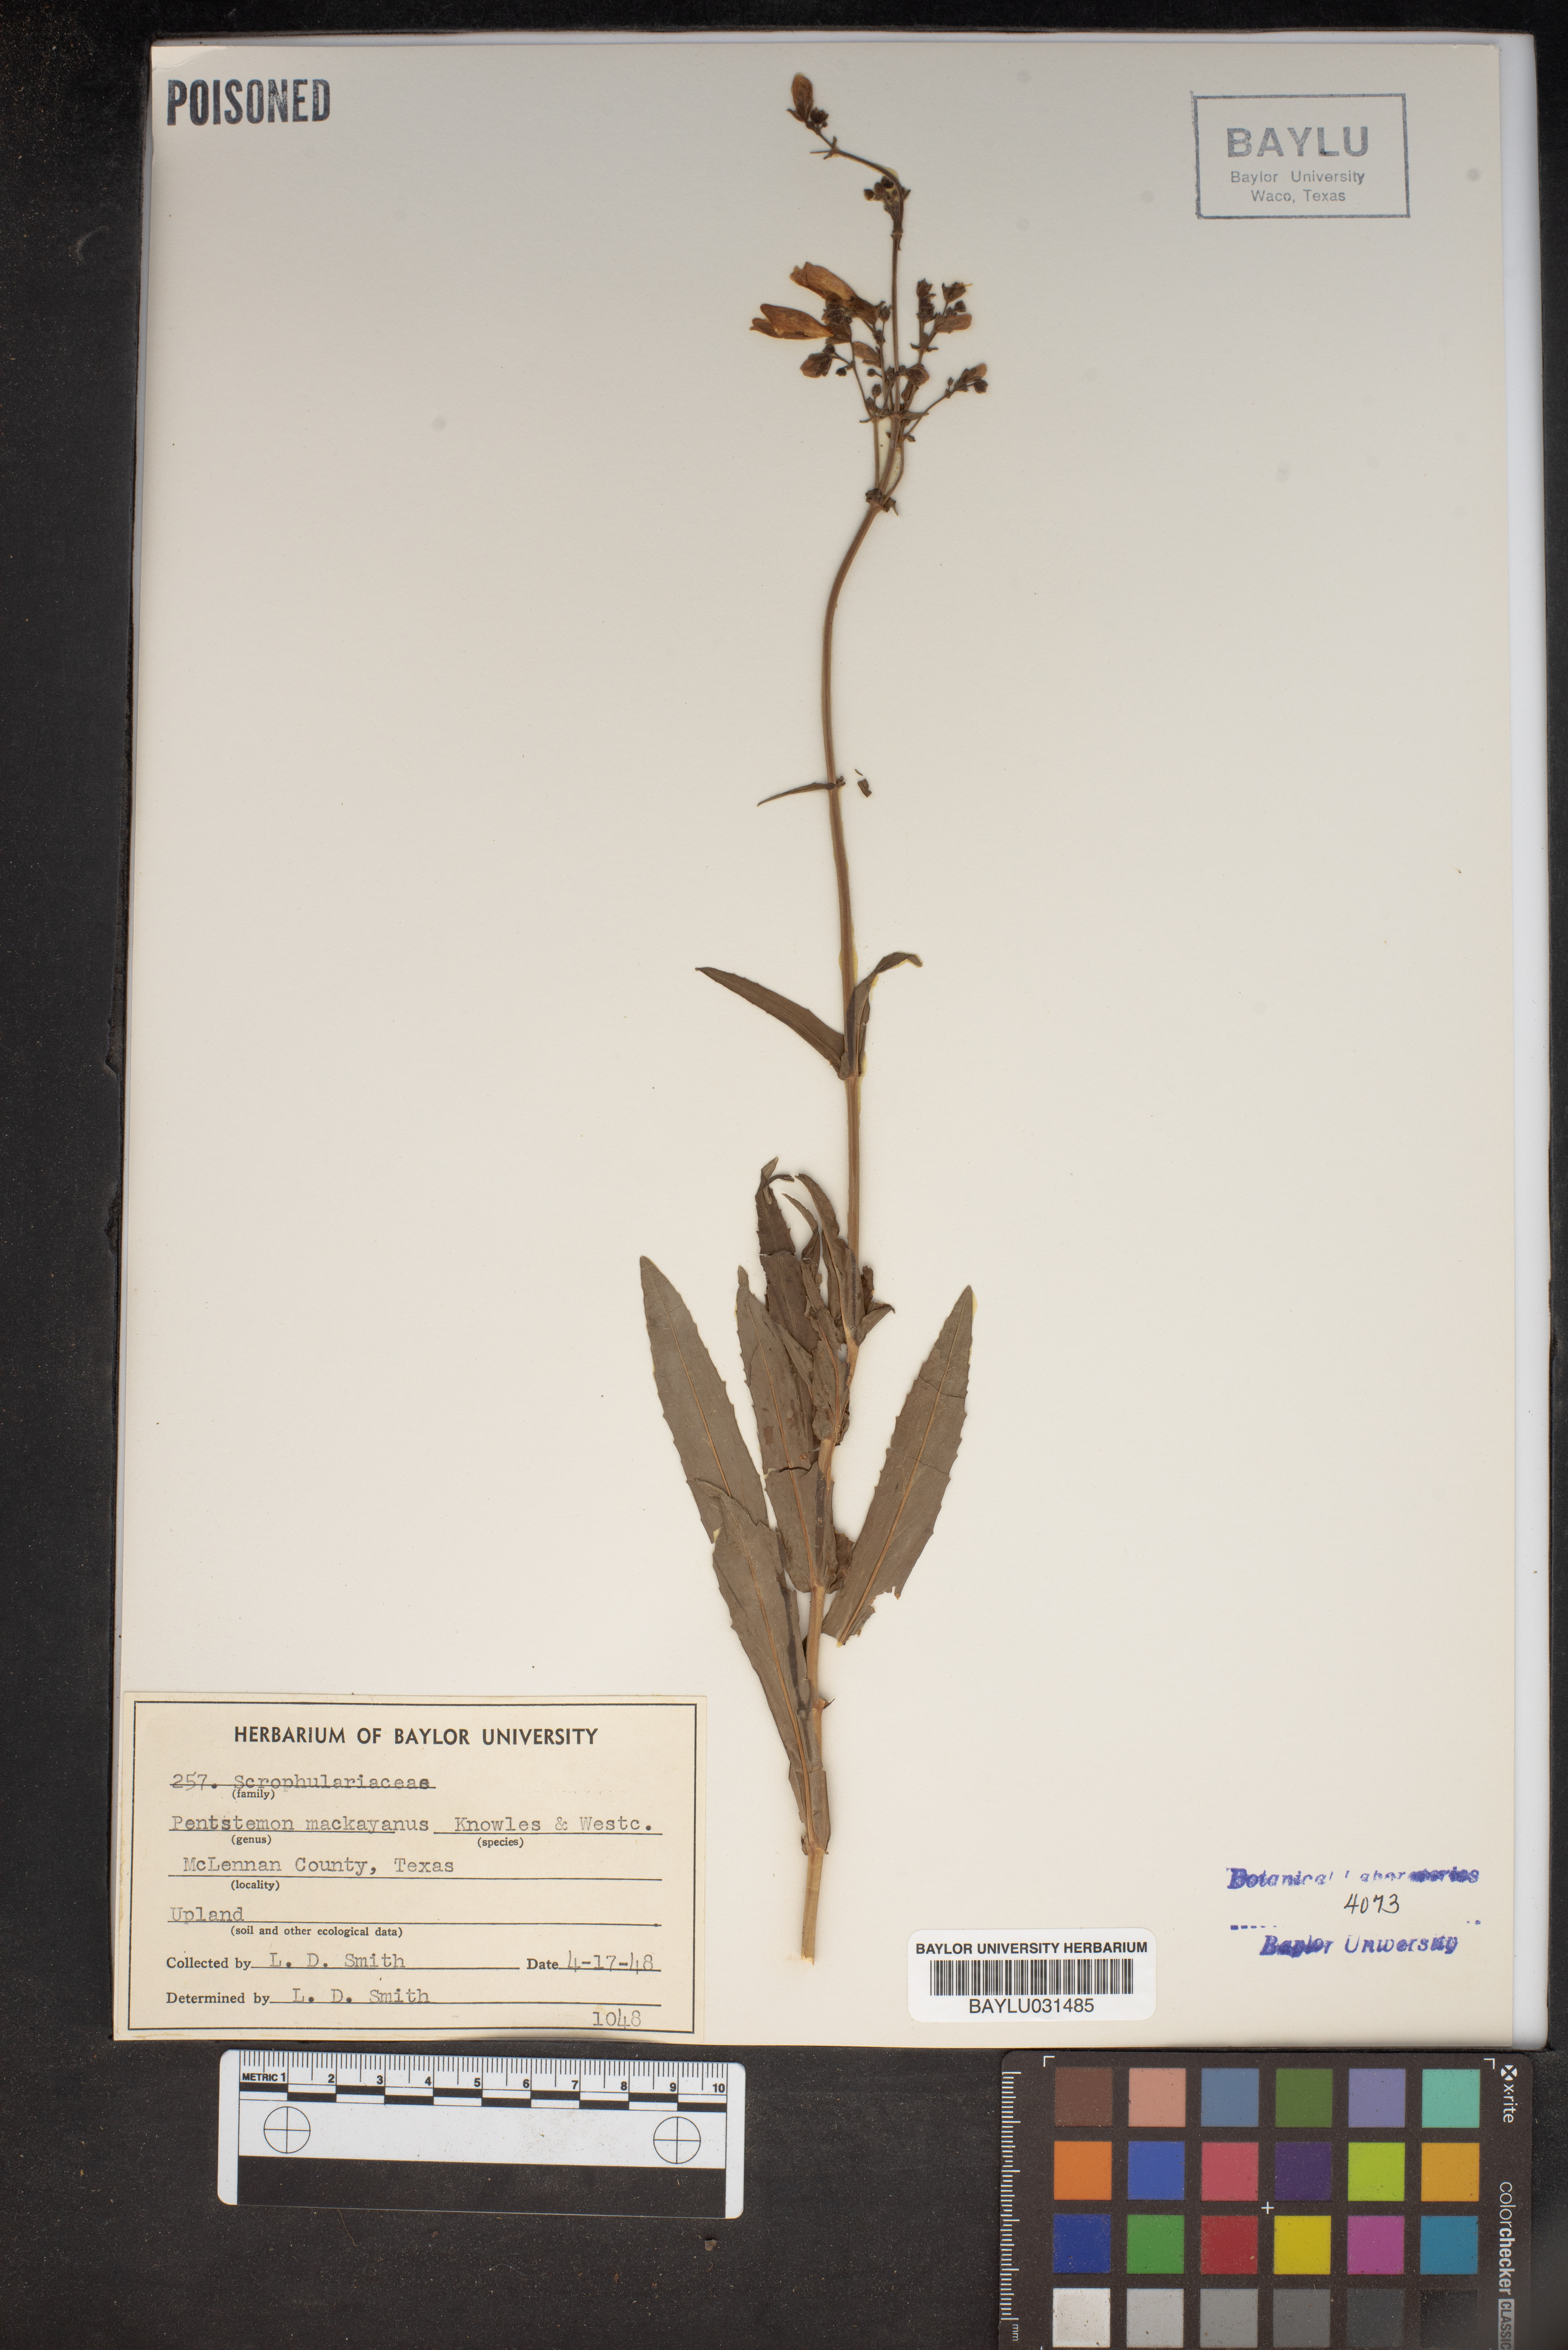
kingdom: Plantae
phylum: Tracheophyta
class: Magnoliopsida
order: Lamiales
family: Plantaginaceae
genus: Penstemon
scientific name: Penstemon hirsutus
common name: Hairy beardtongue
